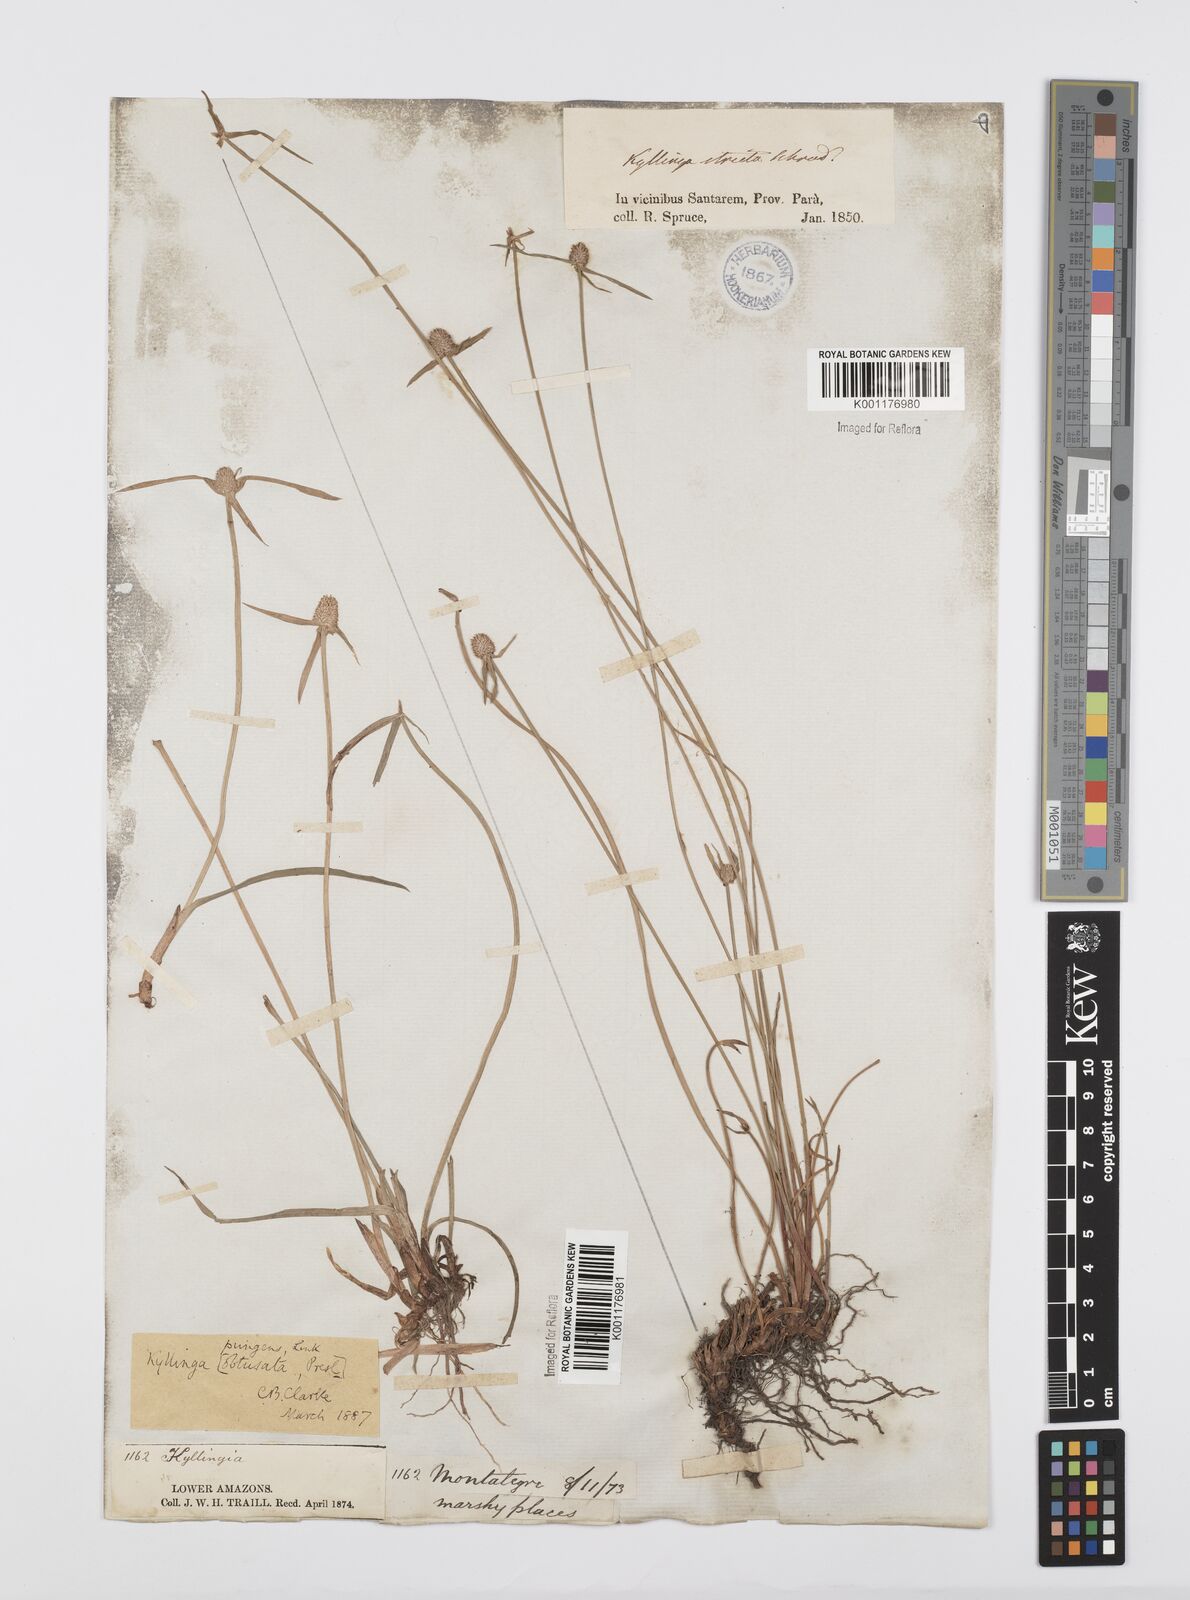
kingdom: Plantae
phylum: Tracheophyta
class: Liliopsida
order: Poales
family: Cyperaceae
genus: Cyperus
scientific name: Cyperus obtusatus
